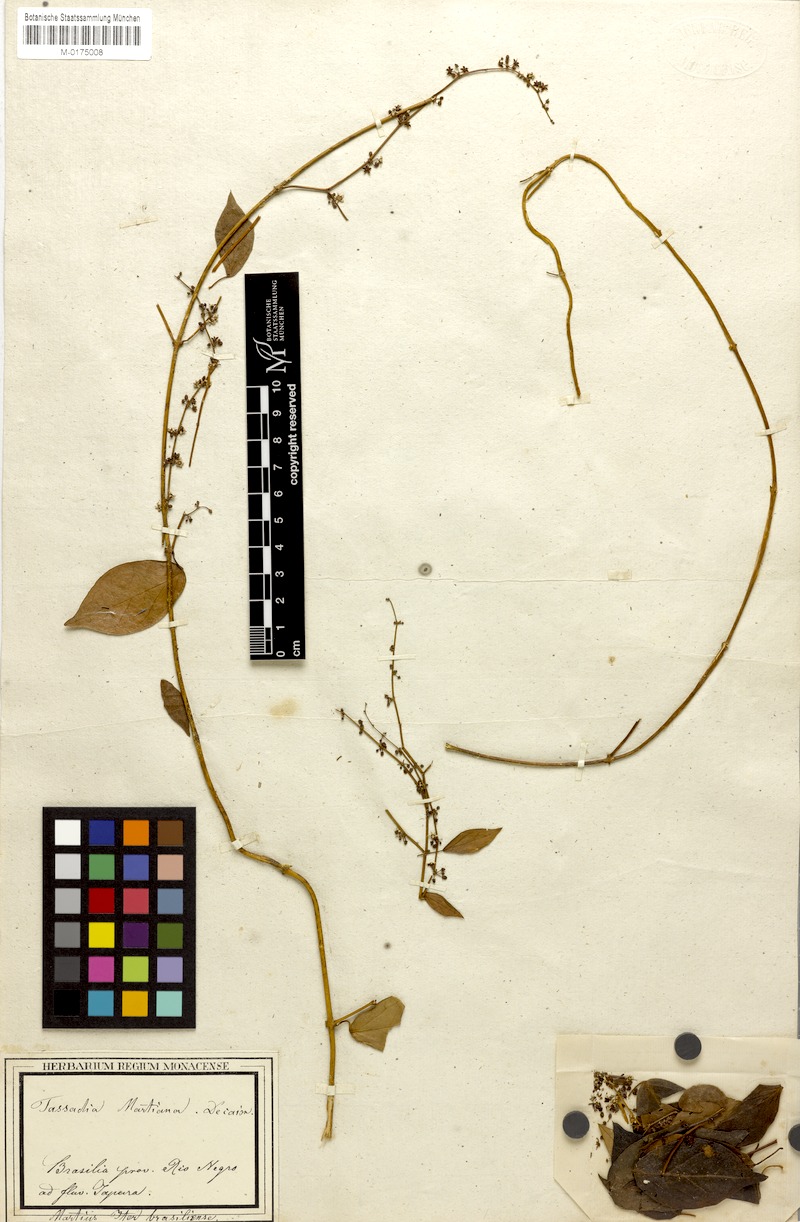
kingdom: Plantae
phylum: Tracheophyta
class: Magnoliopsida
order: Gentianales
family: Apocynaceae
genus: Tassadia
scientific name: Tassadia martiana
